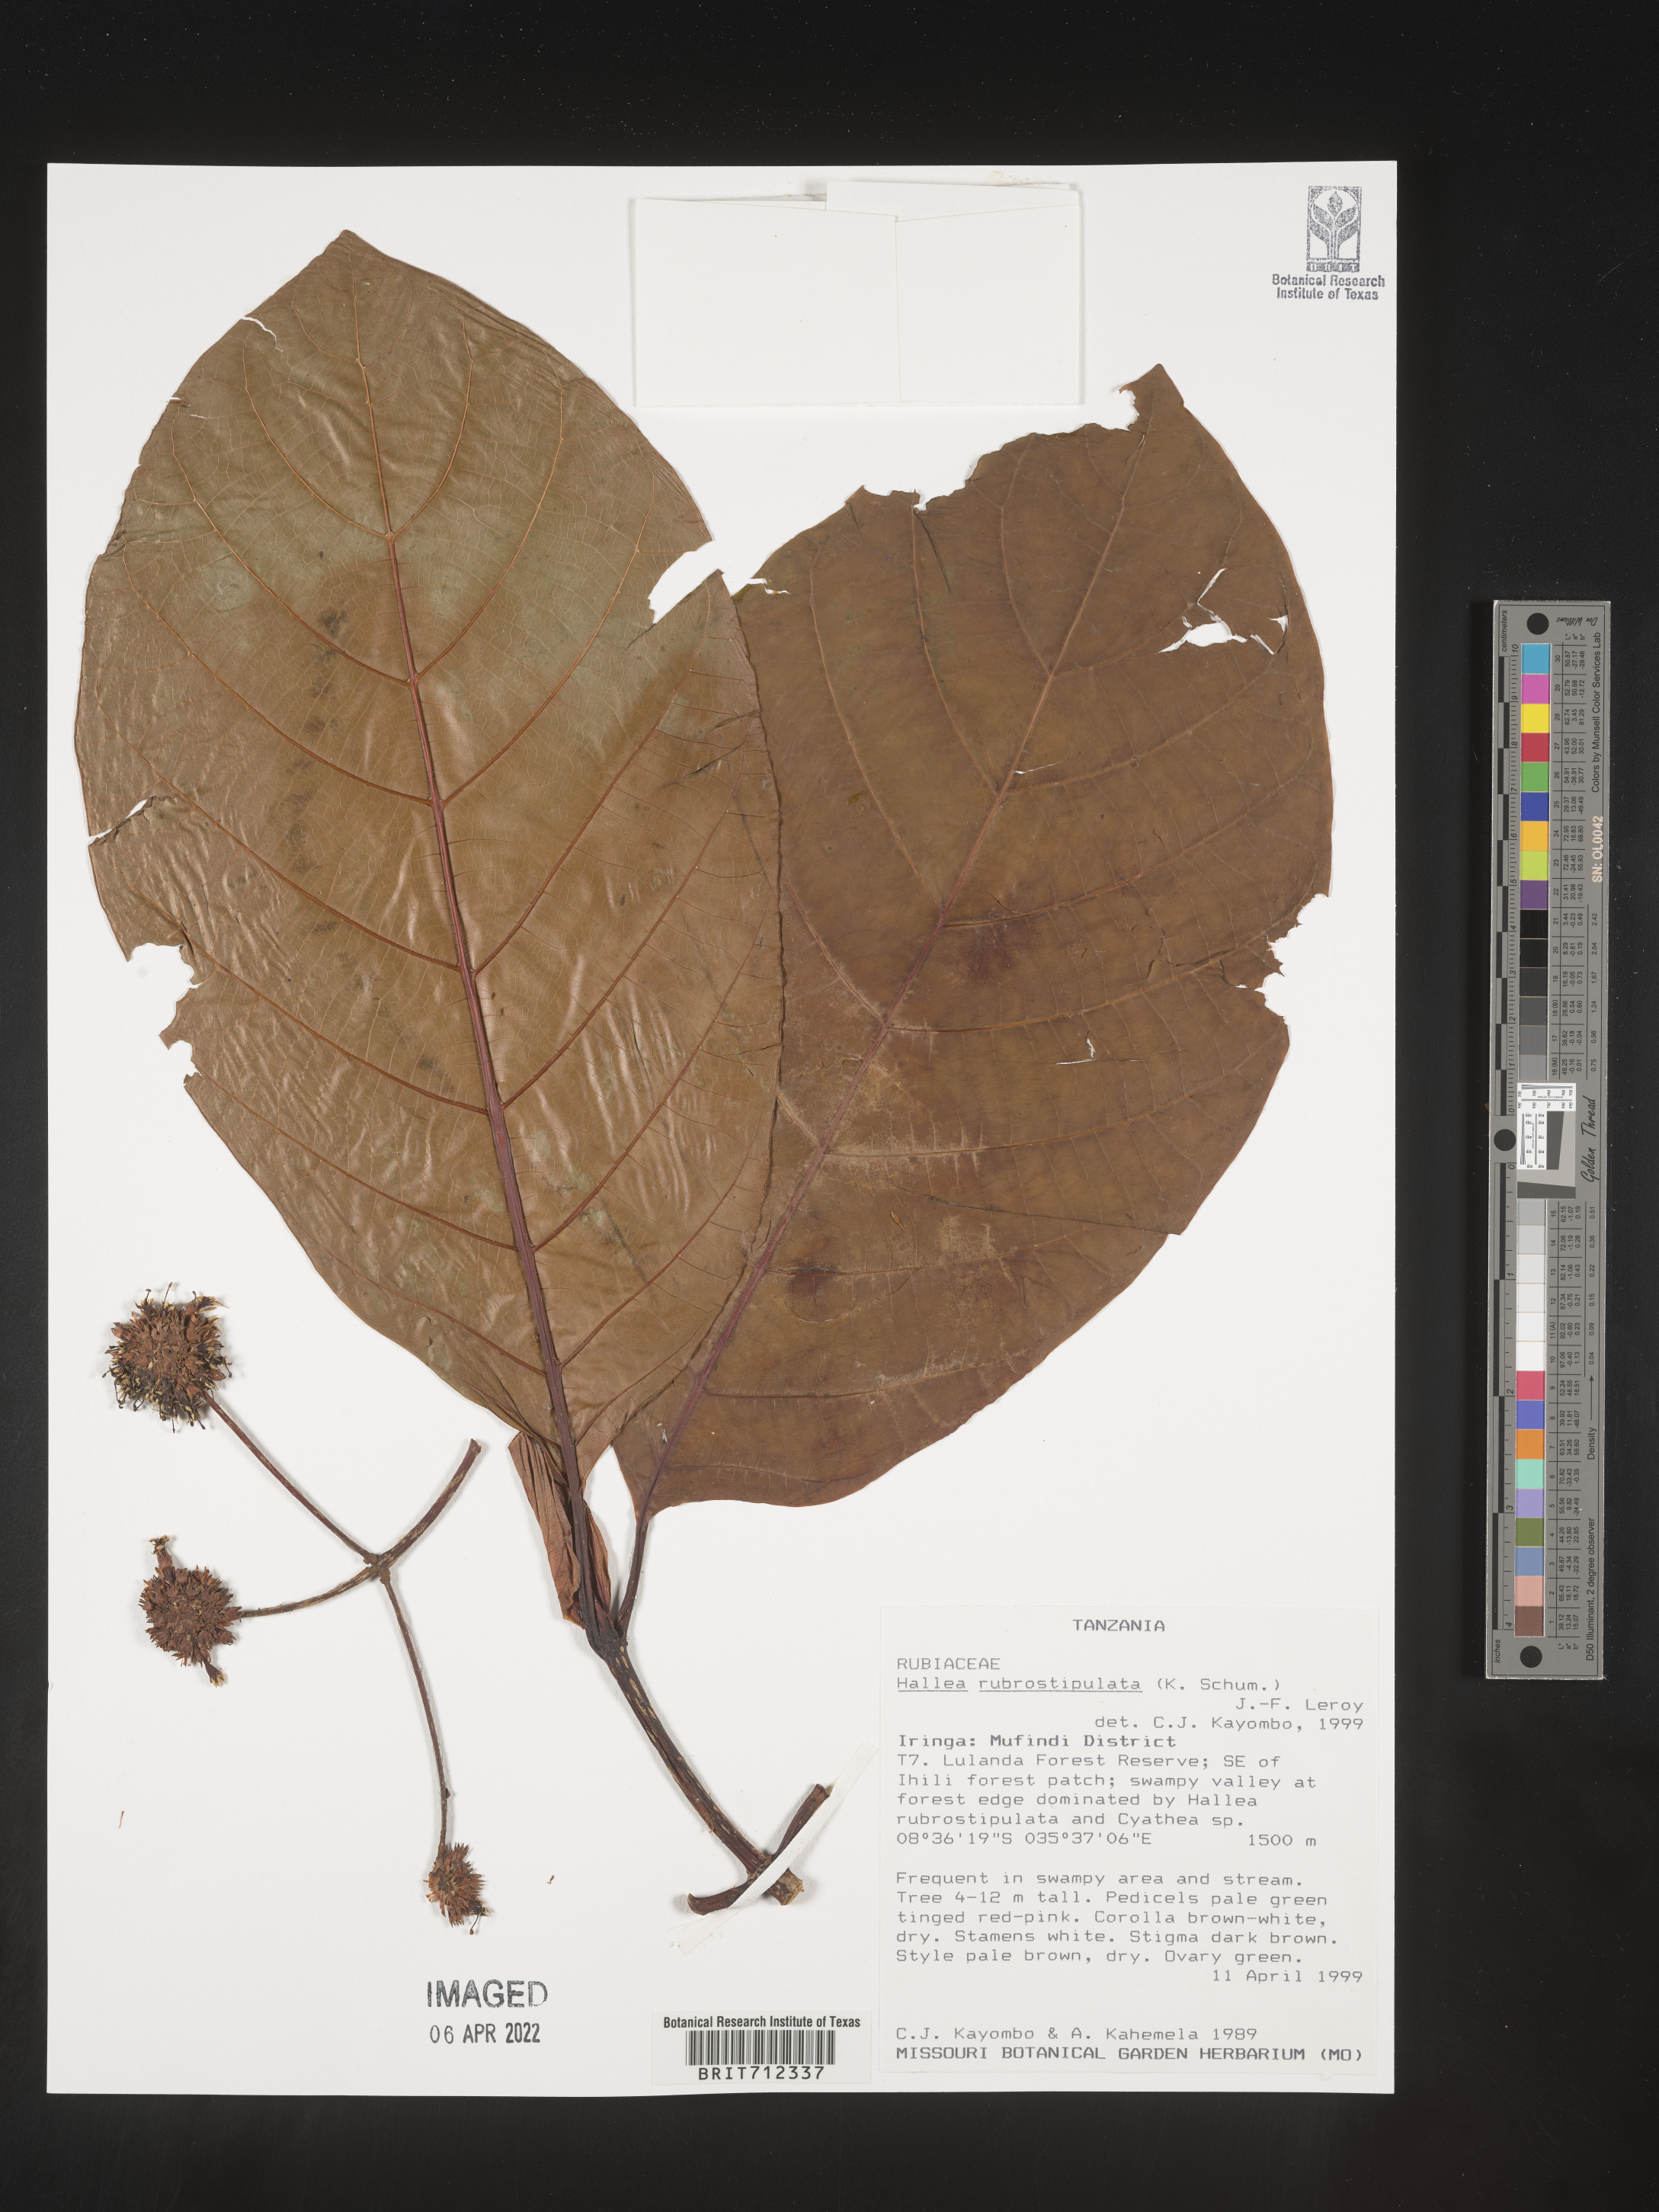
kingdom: Plantae
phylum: Tracheophyta
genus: Hallea
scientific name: Hallea
